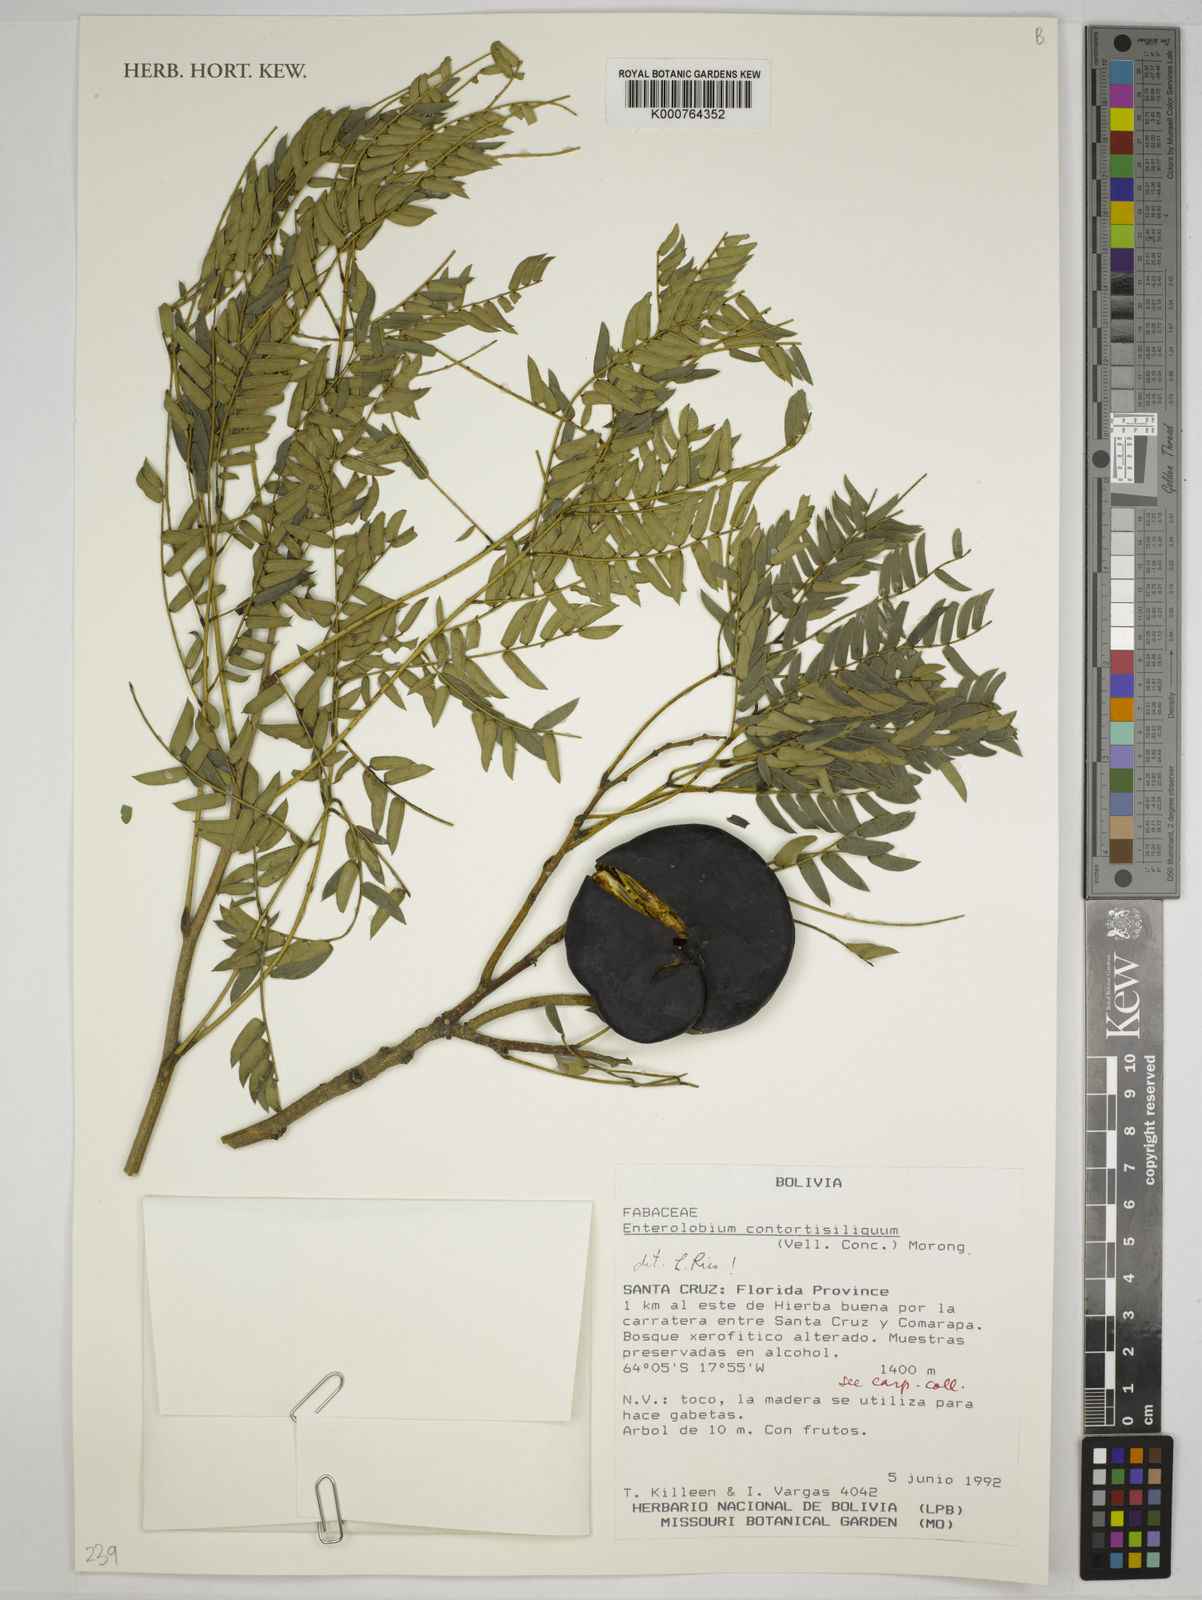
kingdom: Plantae
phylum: Tracheophyta
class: Magnoliopsida
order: Fabales
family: Fabaceae
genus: Enterolobium
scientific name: Enterolobium
